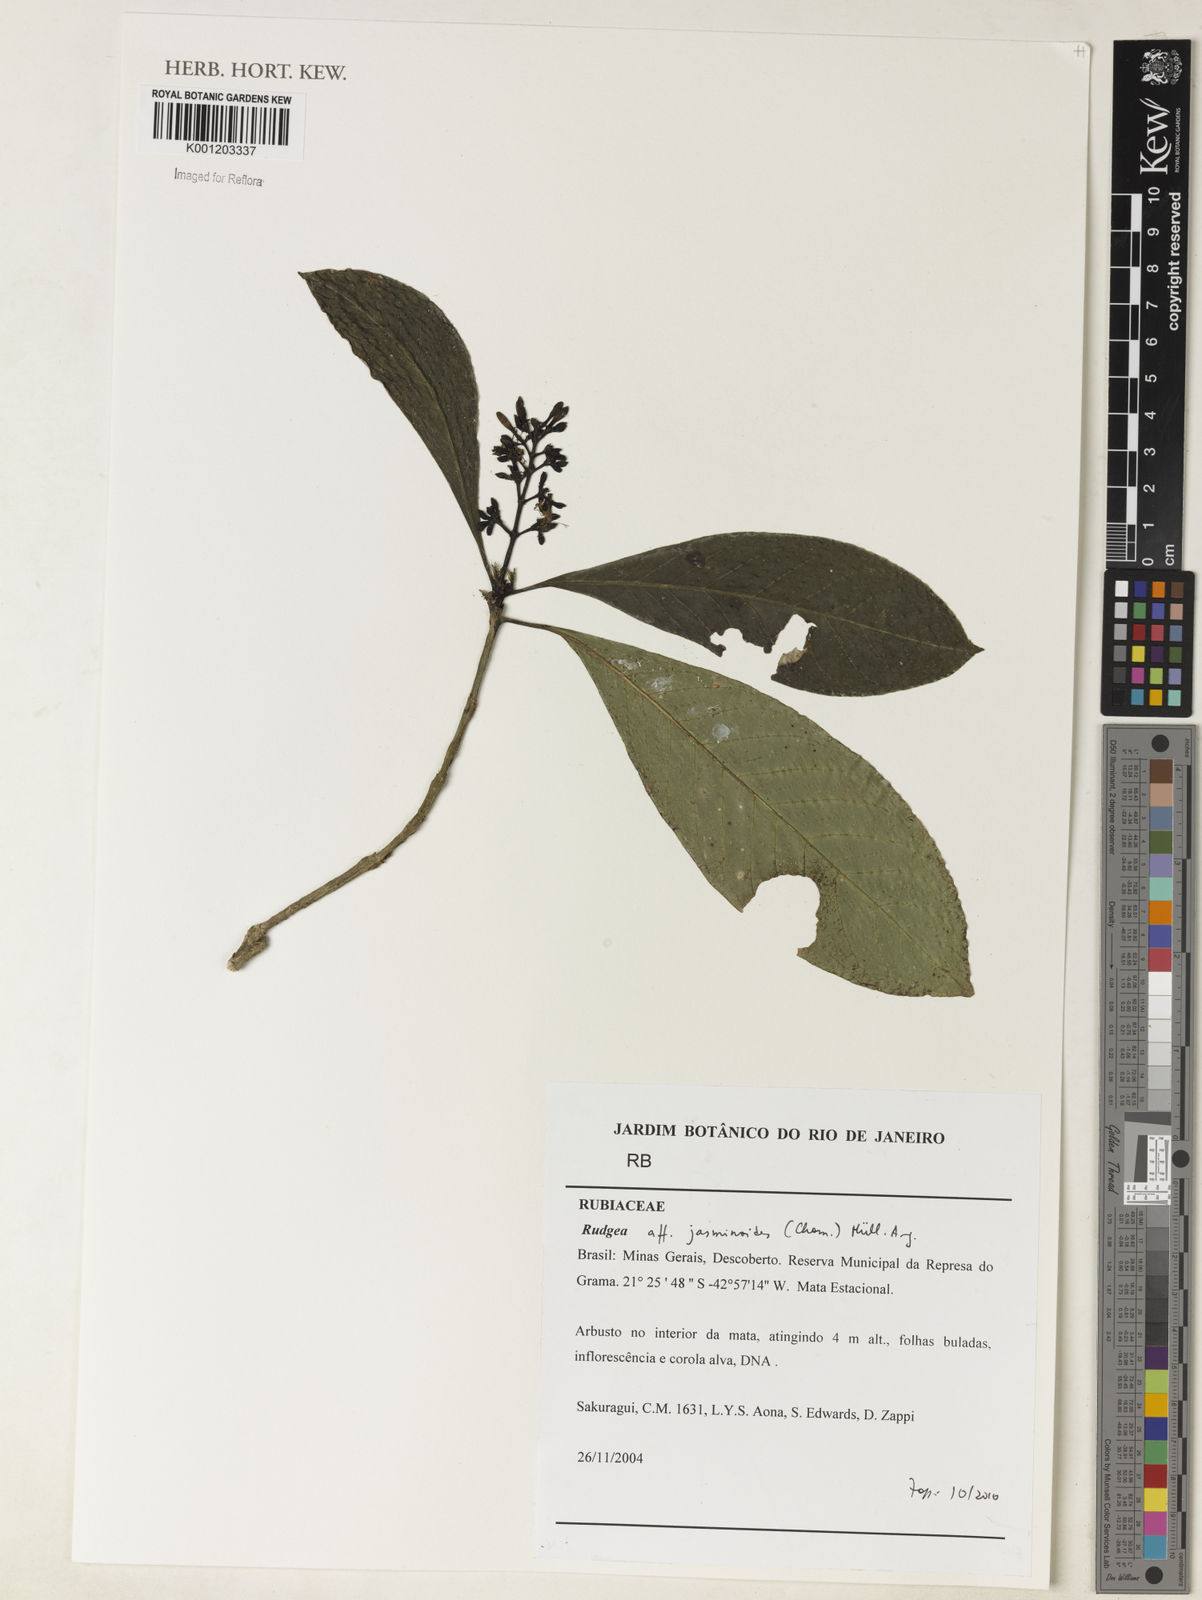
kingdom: Plantae
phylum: Tracheophyta
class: Magnoliopsida
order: Gentianales
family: Rubiaceae
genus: Rudgea
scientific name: Rudgea
